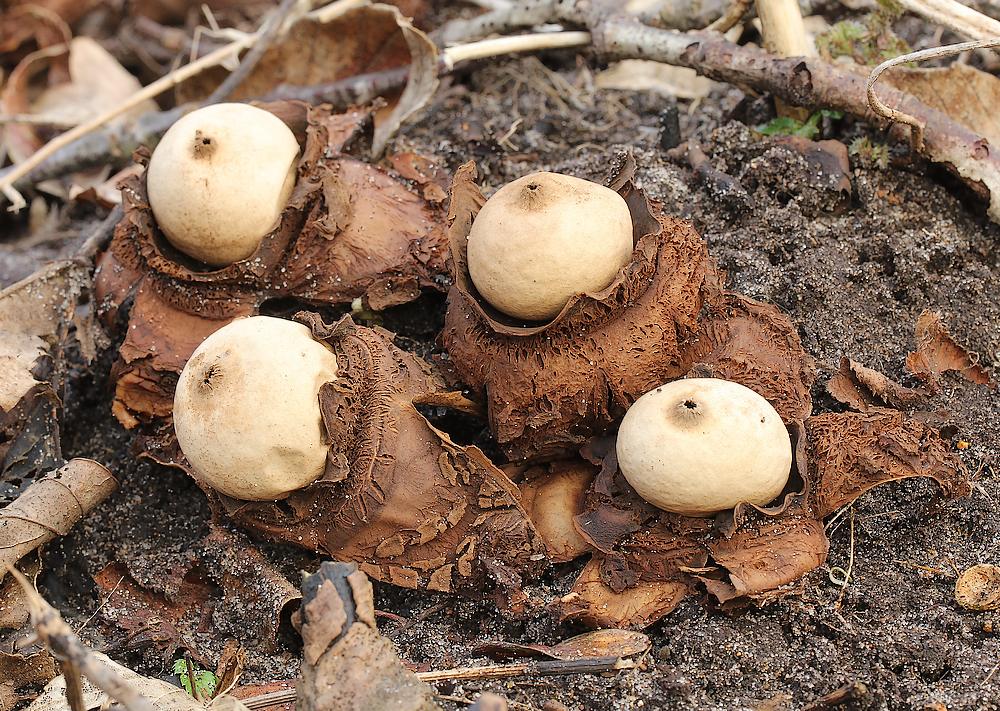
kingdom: Fungi
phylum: Basidiomycota
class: Agaricomycetes
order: Geastrales
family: Geastraceae
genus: Geastrum
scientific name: Geastrum michelianum
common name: kødet stjernebold
